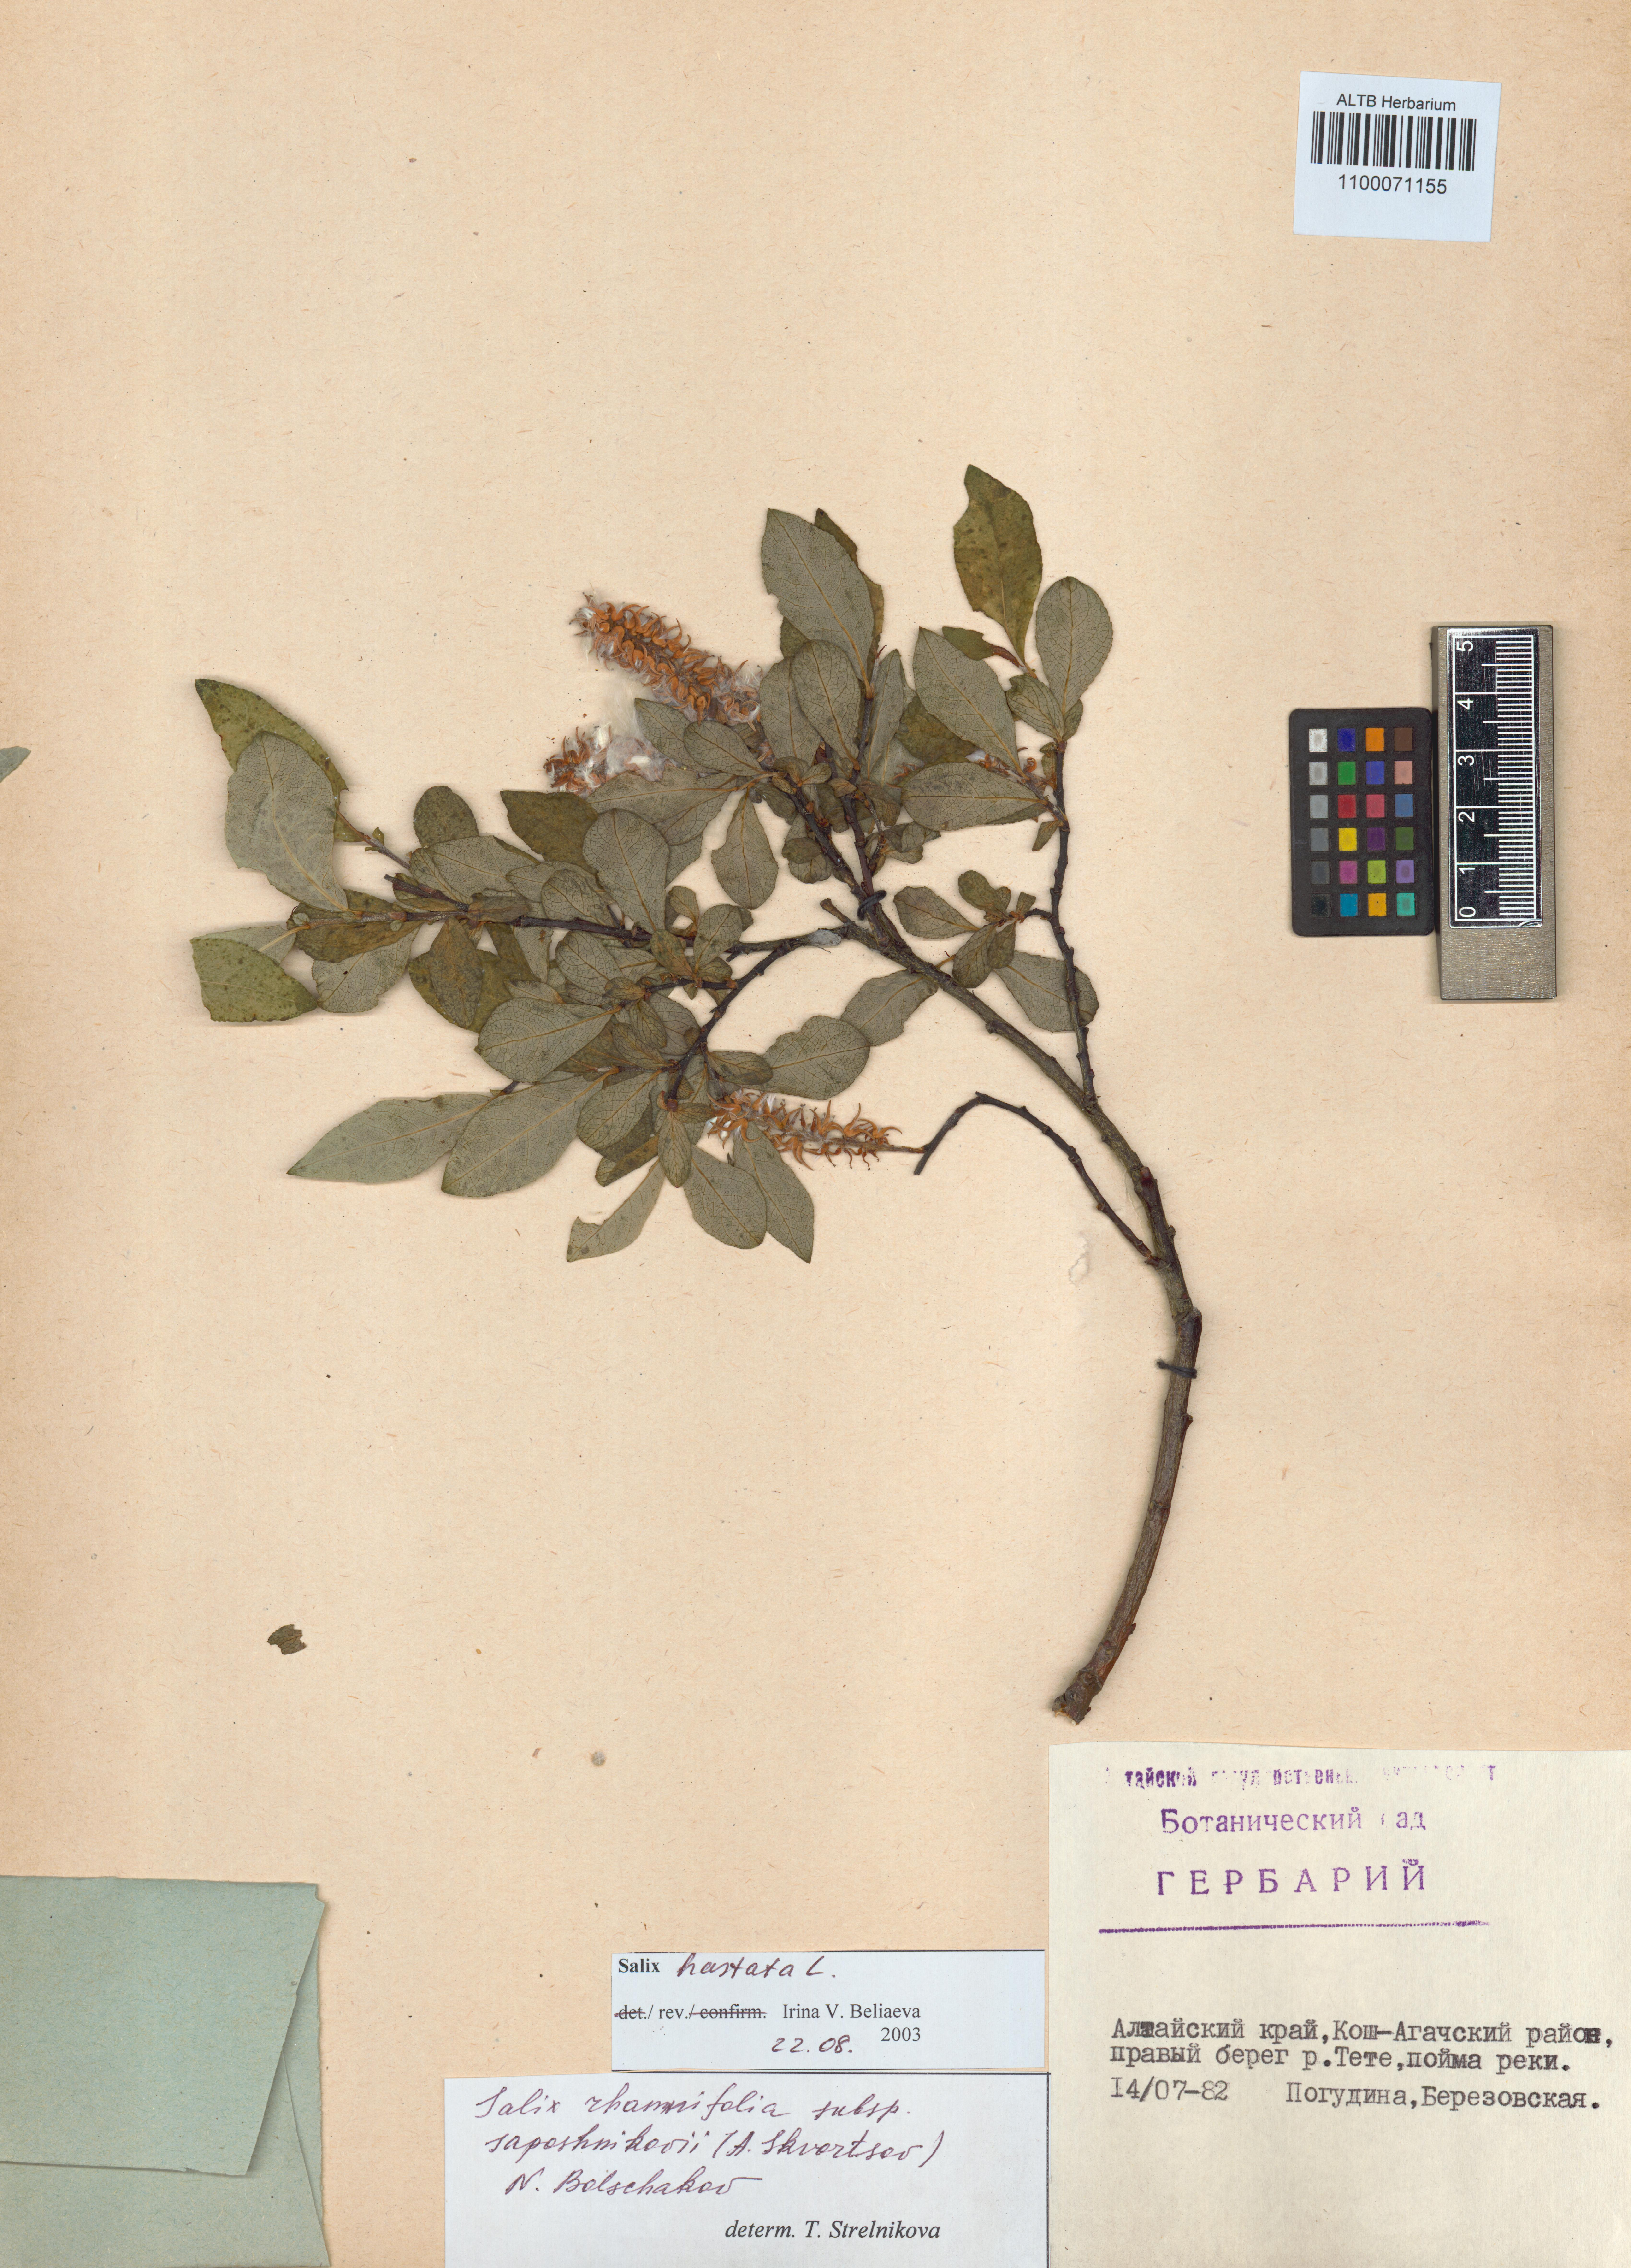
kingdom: Plantae
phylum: Tracheophyta
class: Magnoliopsida
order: Malpighiales
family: Salicaceae
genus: Salix
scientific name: Salix hastata
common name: Halberd willow
